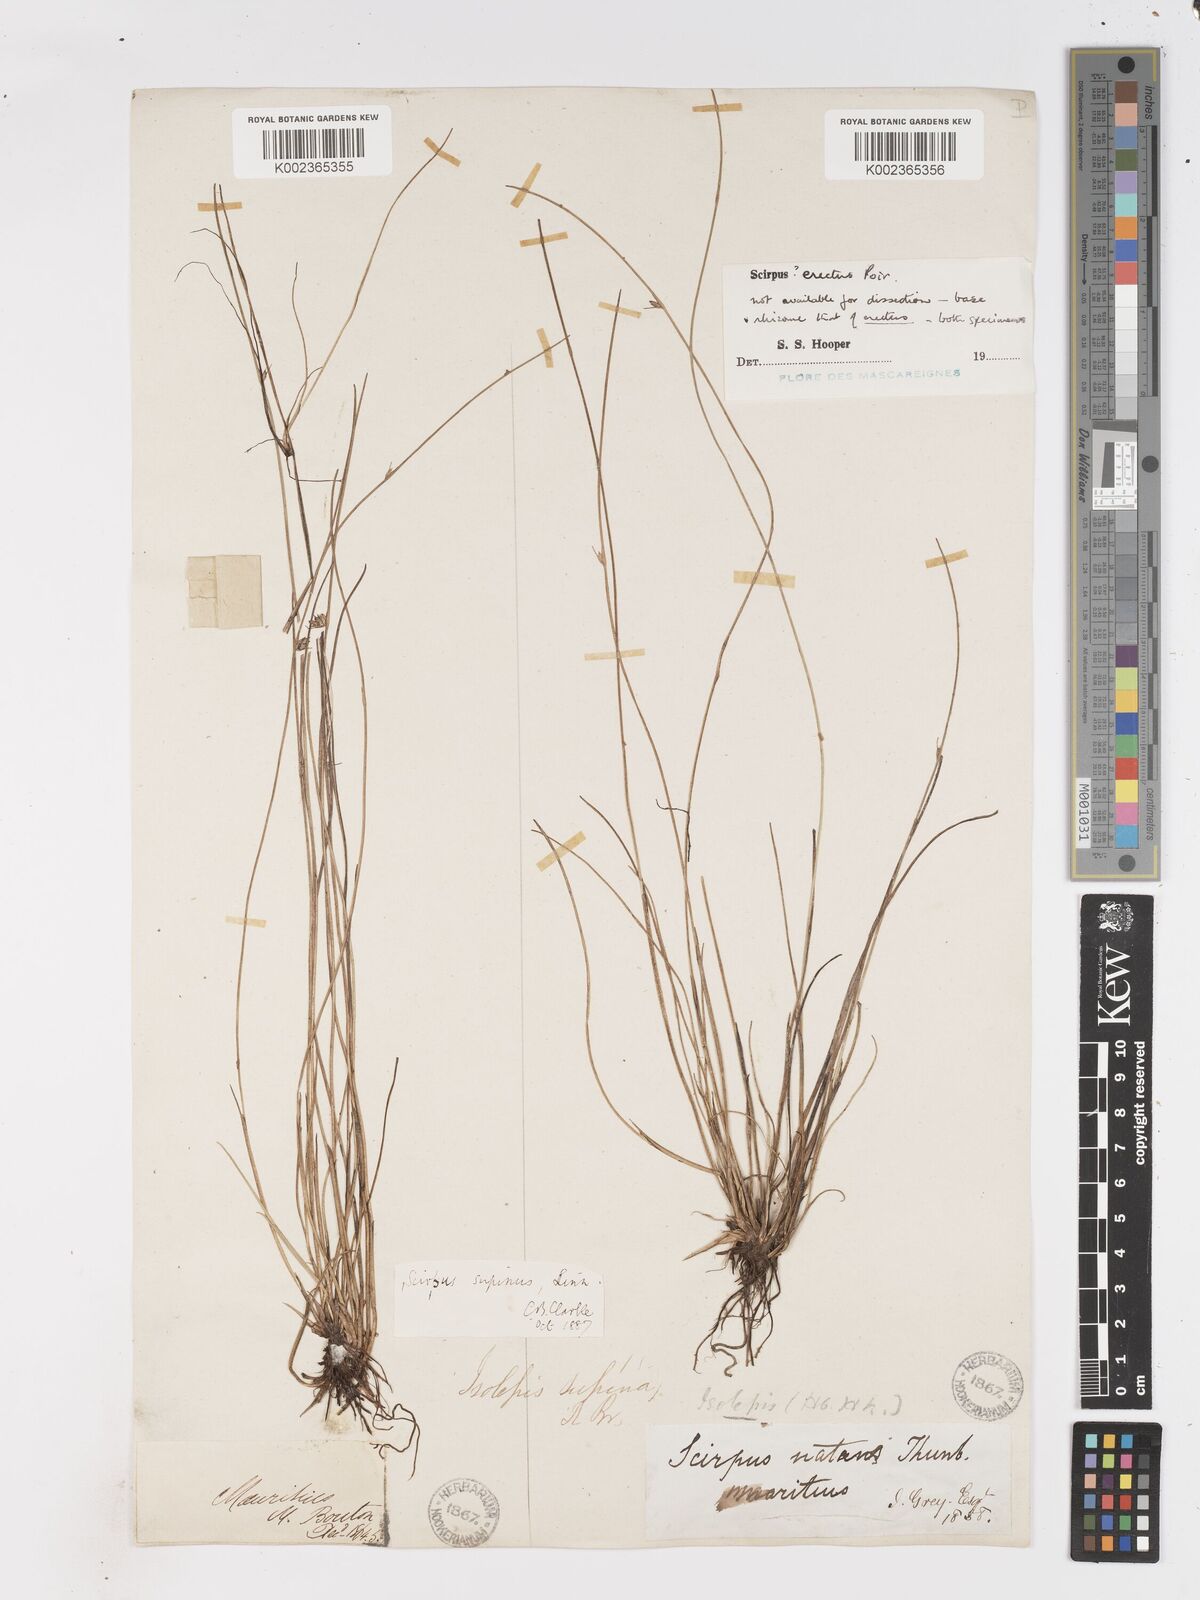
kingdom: Plantae
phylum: Tracheophyta
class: Liliopsida
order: Poales
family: Cyperaceae
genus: Schoenoplectiella
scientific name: Schoenoplectiella erecta
